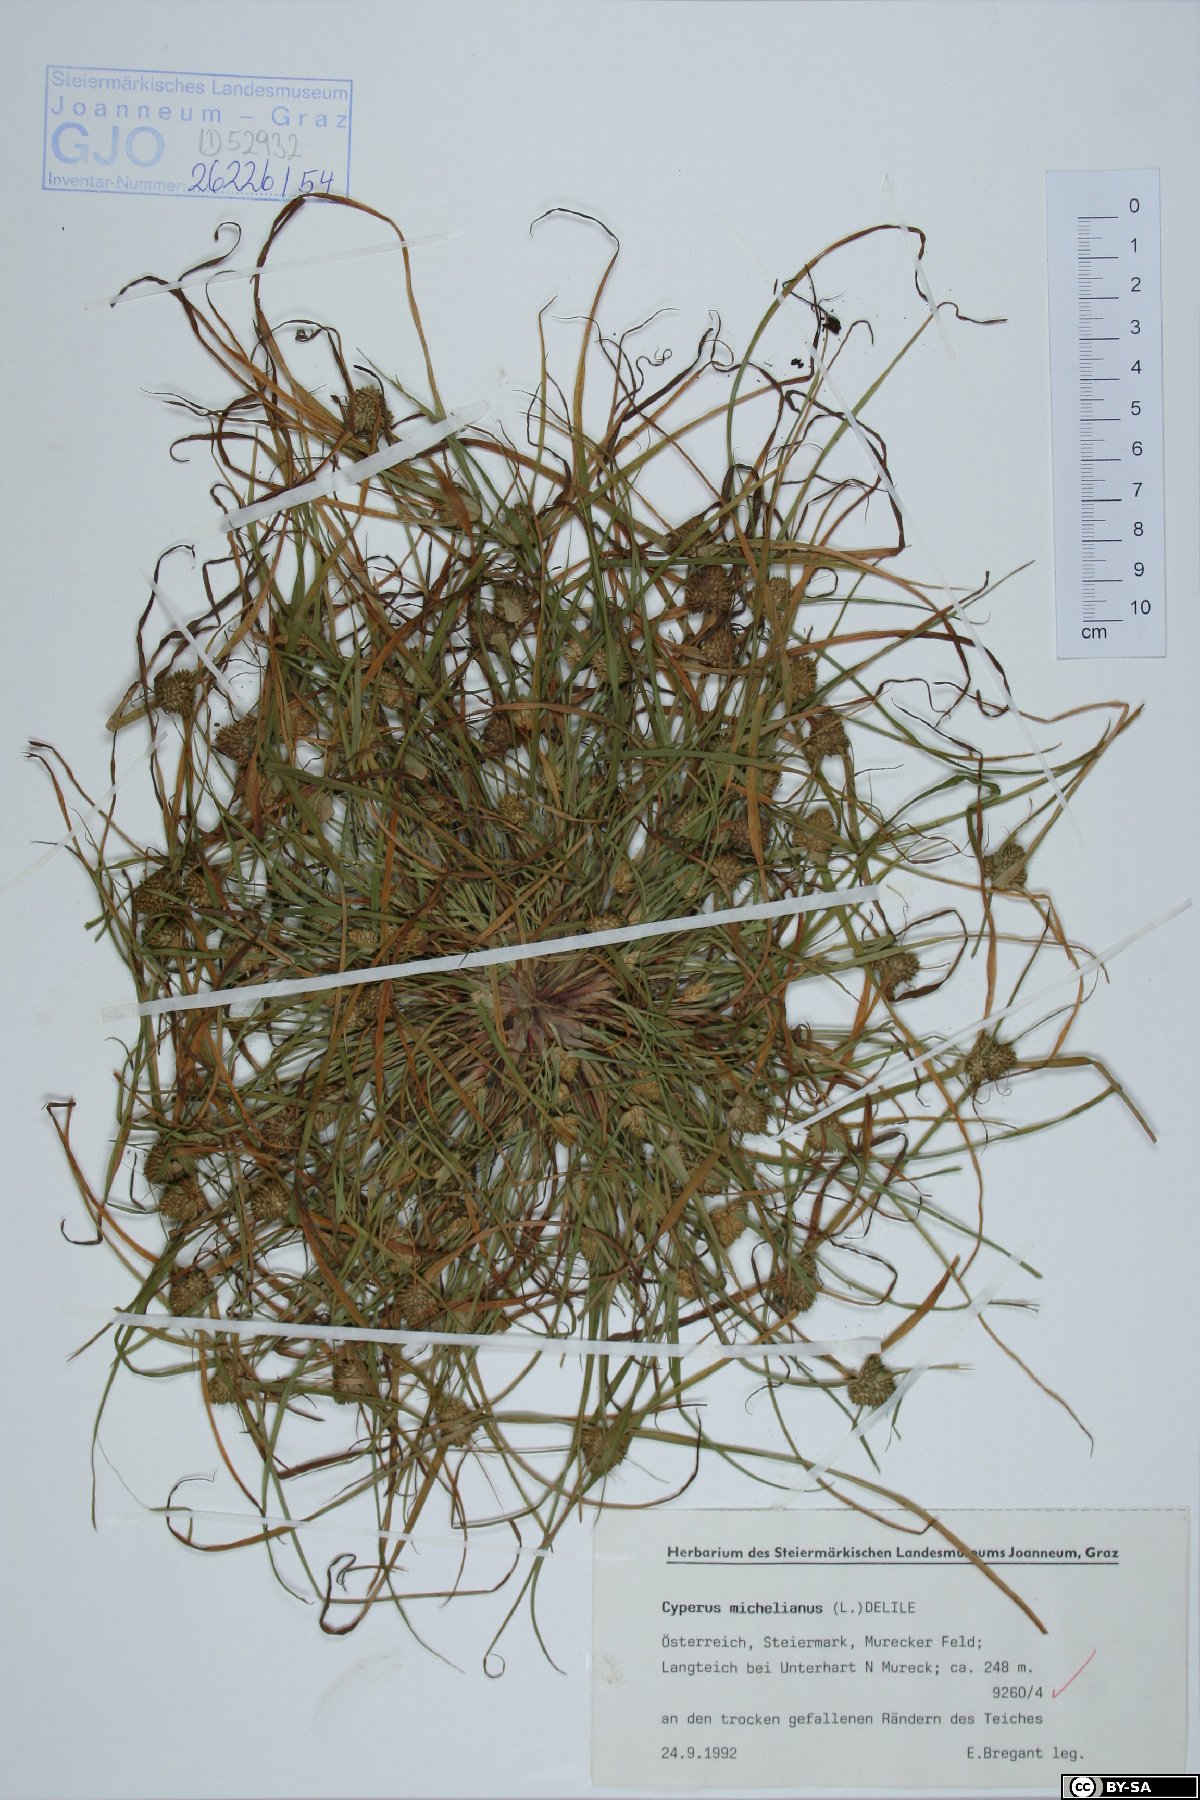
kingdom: Plantae
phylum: Tracheophyta
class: Liliopsida
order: Poales
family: Cyperaceae
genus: Cyperus
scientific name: Cyperus michelianus
